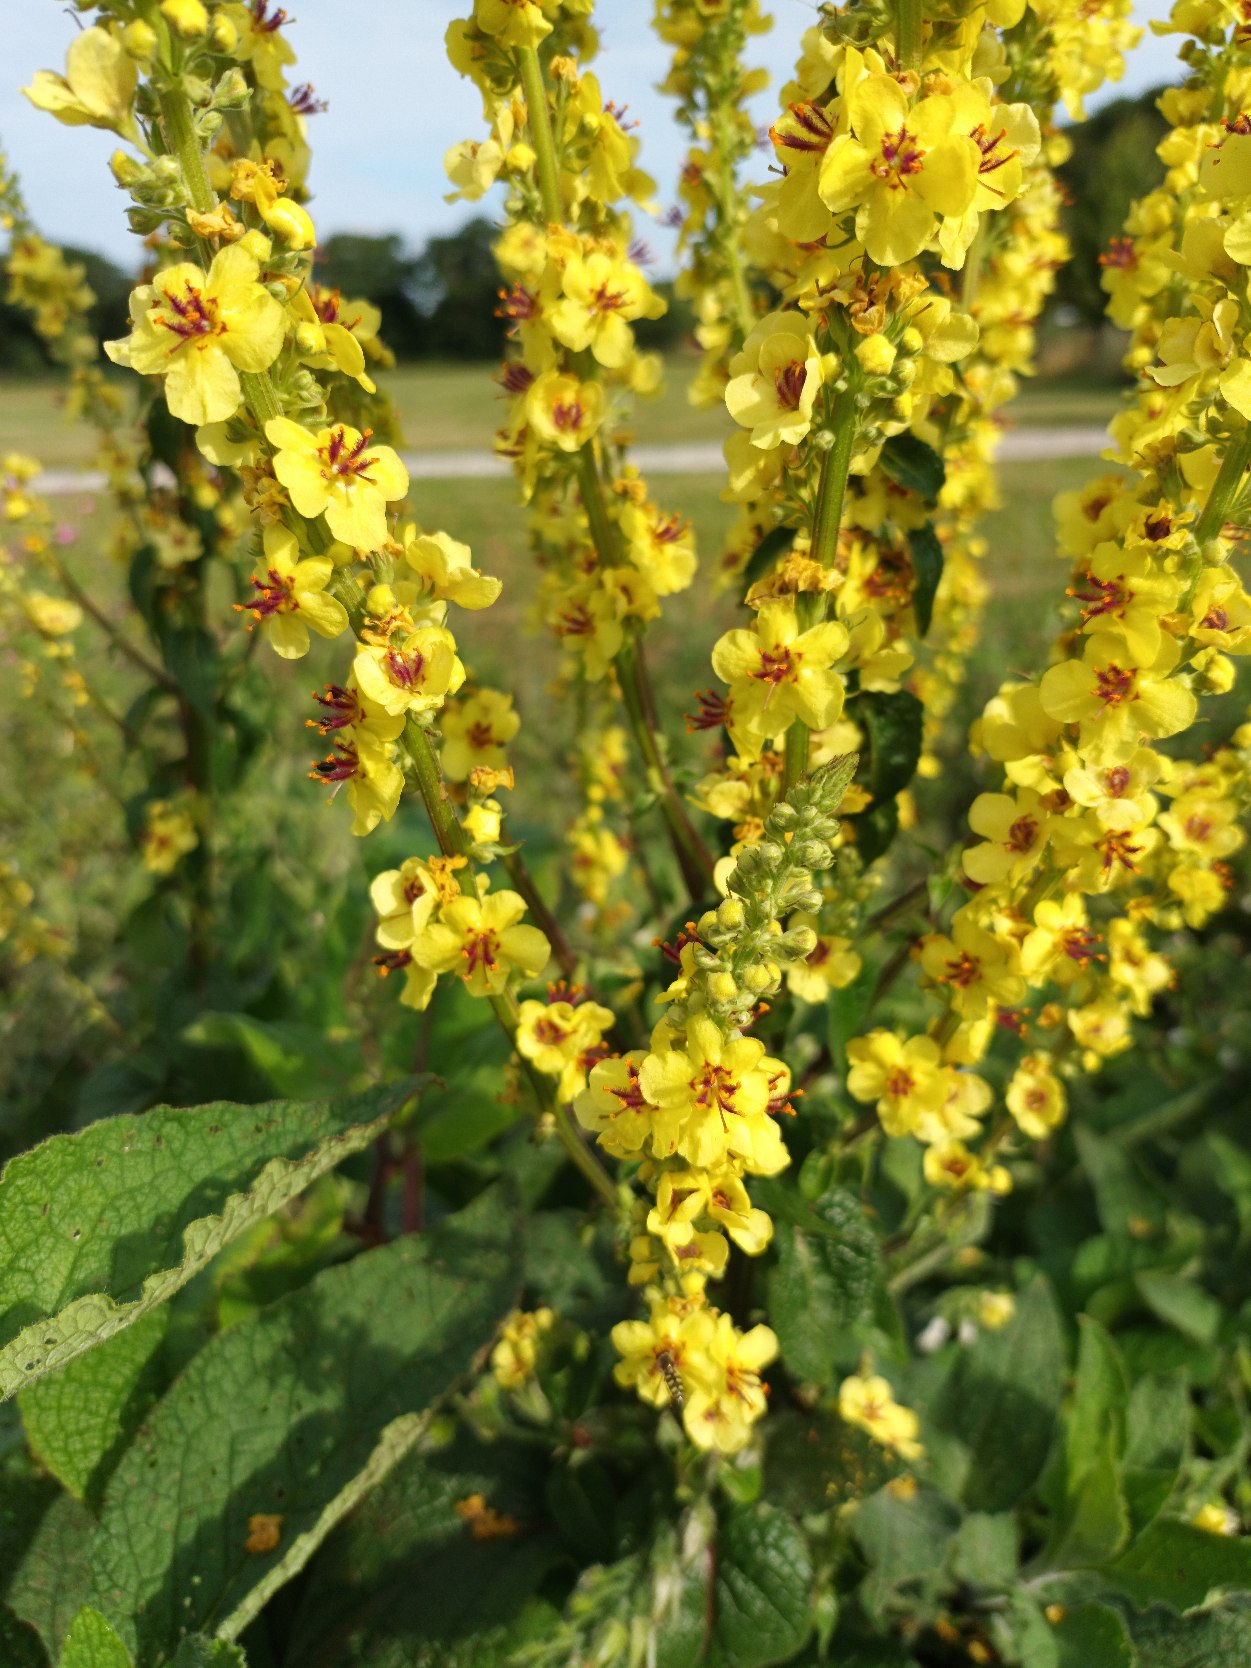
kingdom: Plantae
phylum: Tracheophyta
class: Magnoliopsida
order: Lamiales
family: Scrophulariaceae
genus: Verbascum
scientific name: Verbascum nigrum
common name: Mørk kongelys
